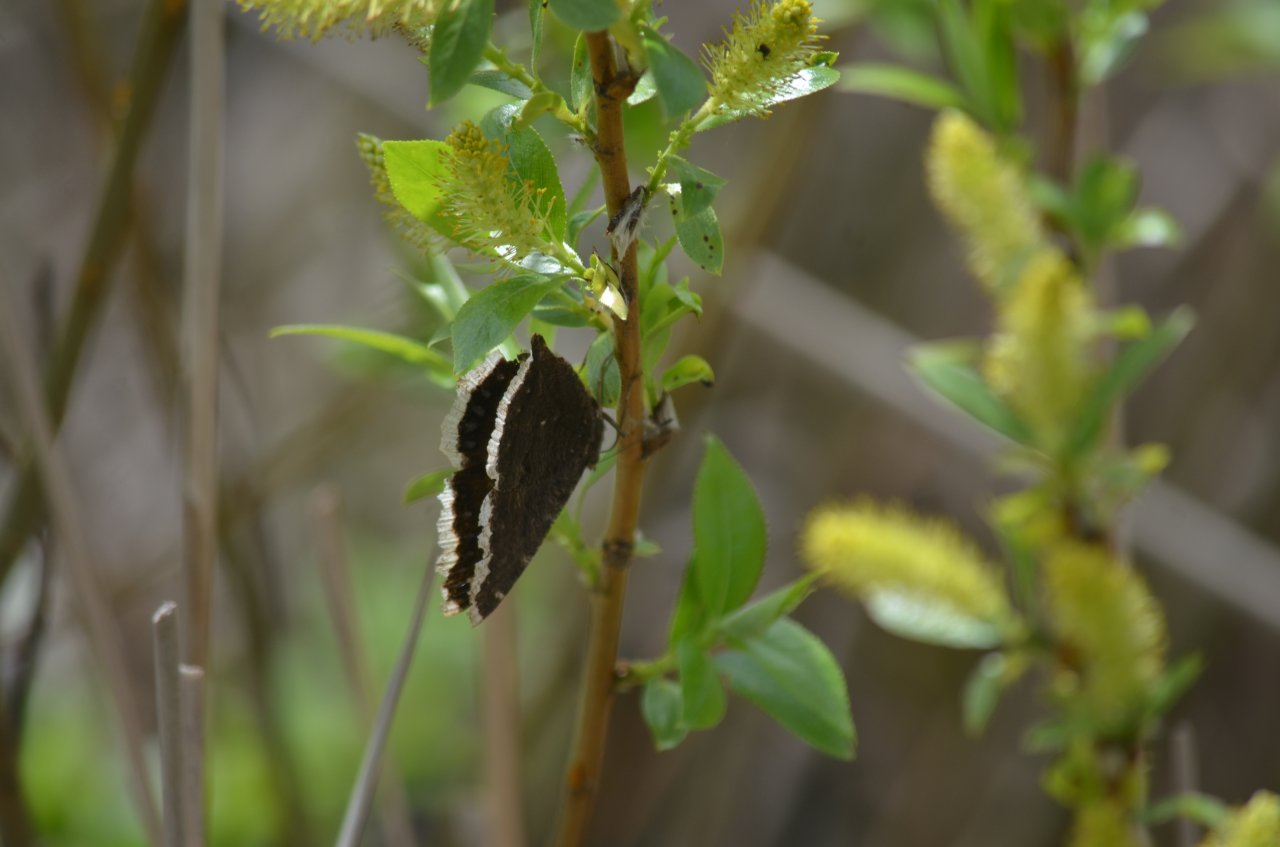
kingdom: Animalia
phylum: Arthropoda
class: Insecta
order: Lepidoptera
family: Nymphalidae
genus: Nymphalis
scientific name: Nymphalis antiopa
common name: Mourning Cloak
